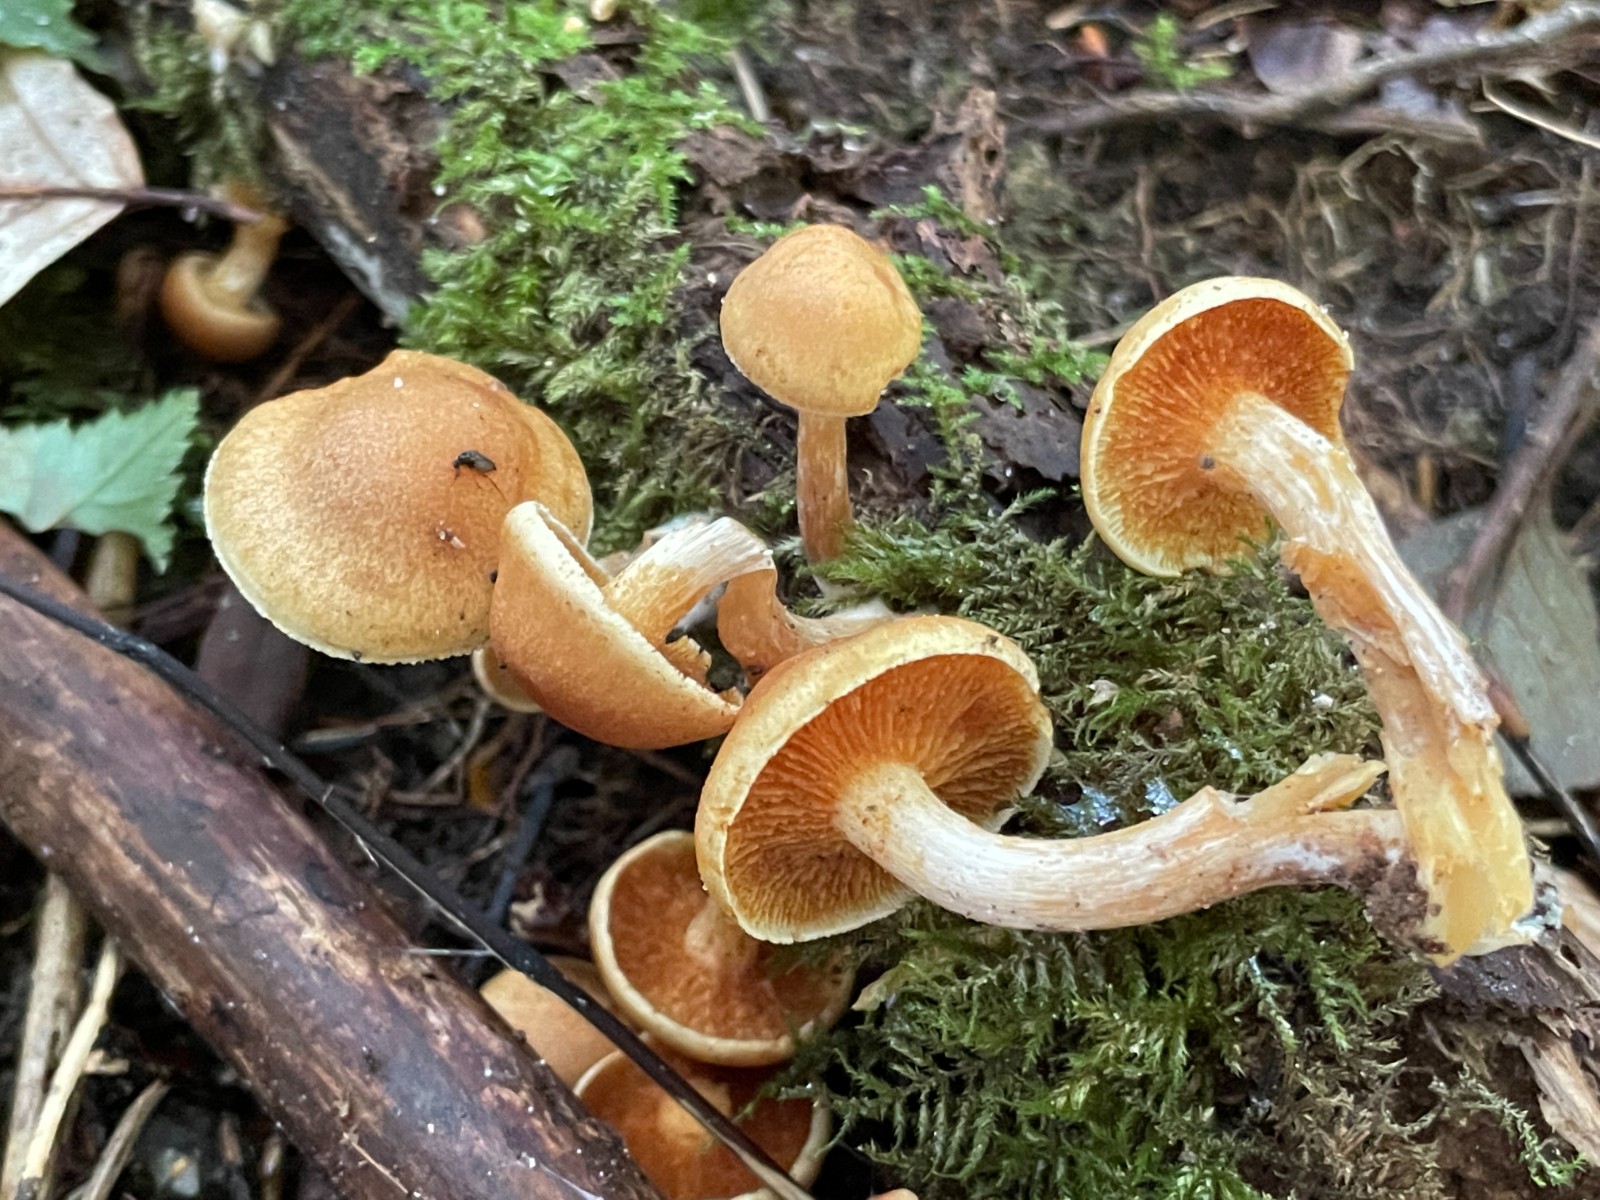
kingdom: Fungi
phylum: Basidiomycota
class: Agaricomycetes
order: Agaricales
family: Hymenogastraceae
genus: Gymnopilus
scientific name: Gymnopilus penetrans
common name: plettet flammehat
